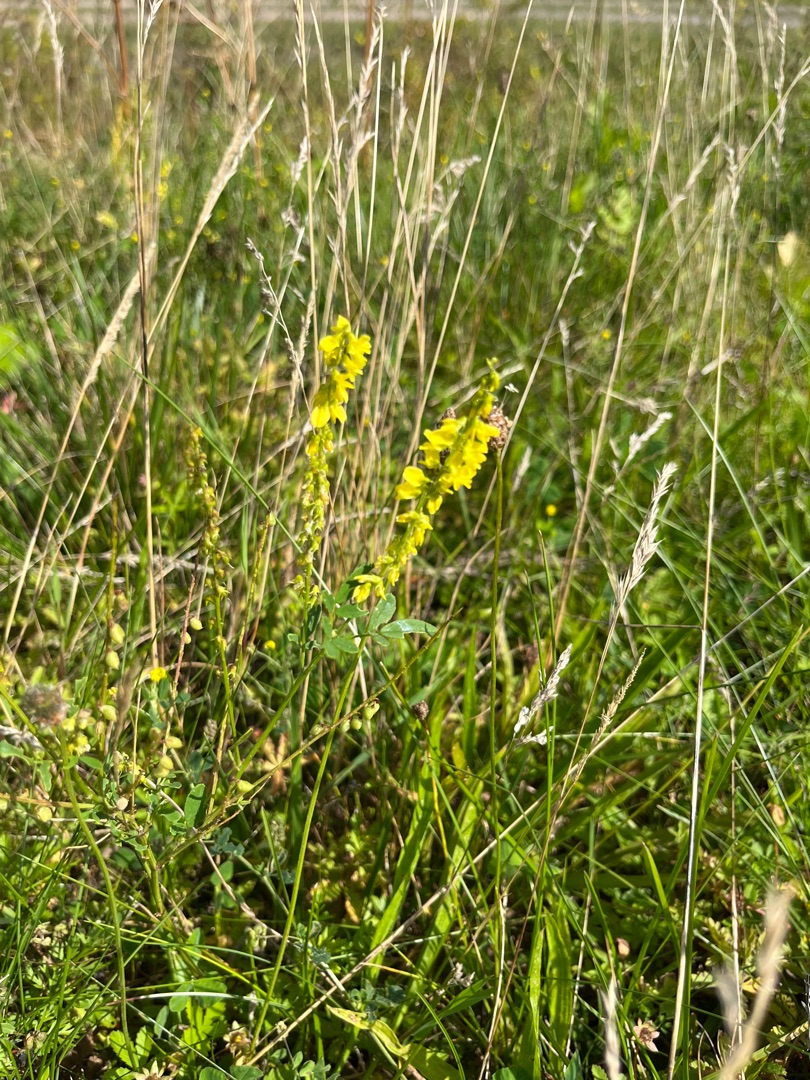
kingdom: Plantae
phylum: Tracheophyta
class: Magnoliopsida
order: Fabales
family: Fabaceae
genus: Melilotus
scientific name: Melilotus
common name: Stenkløverslægten
